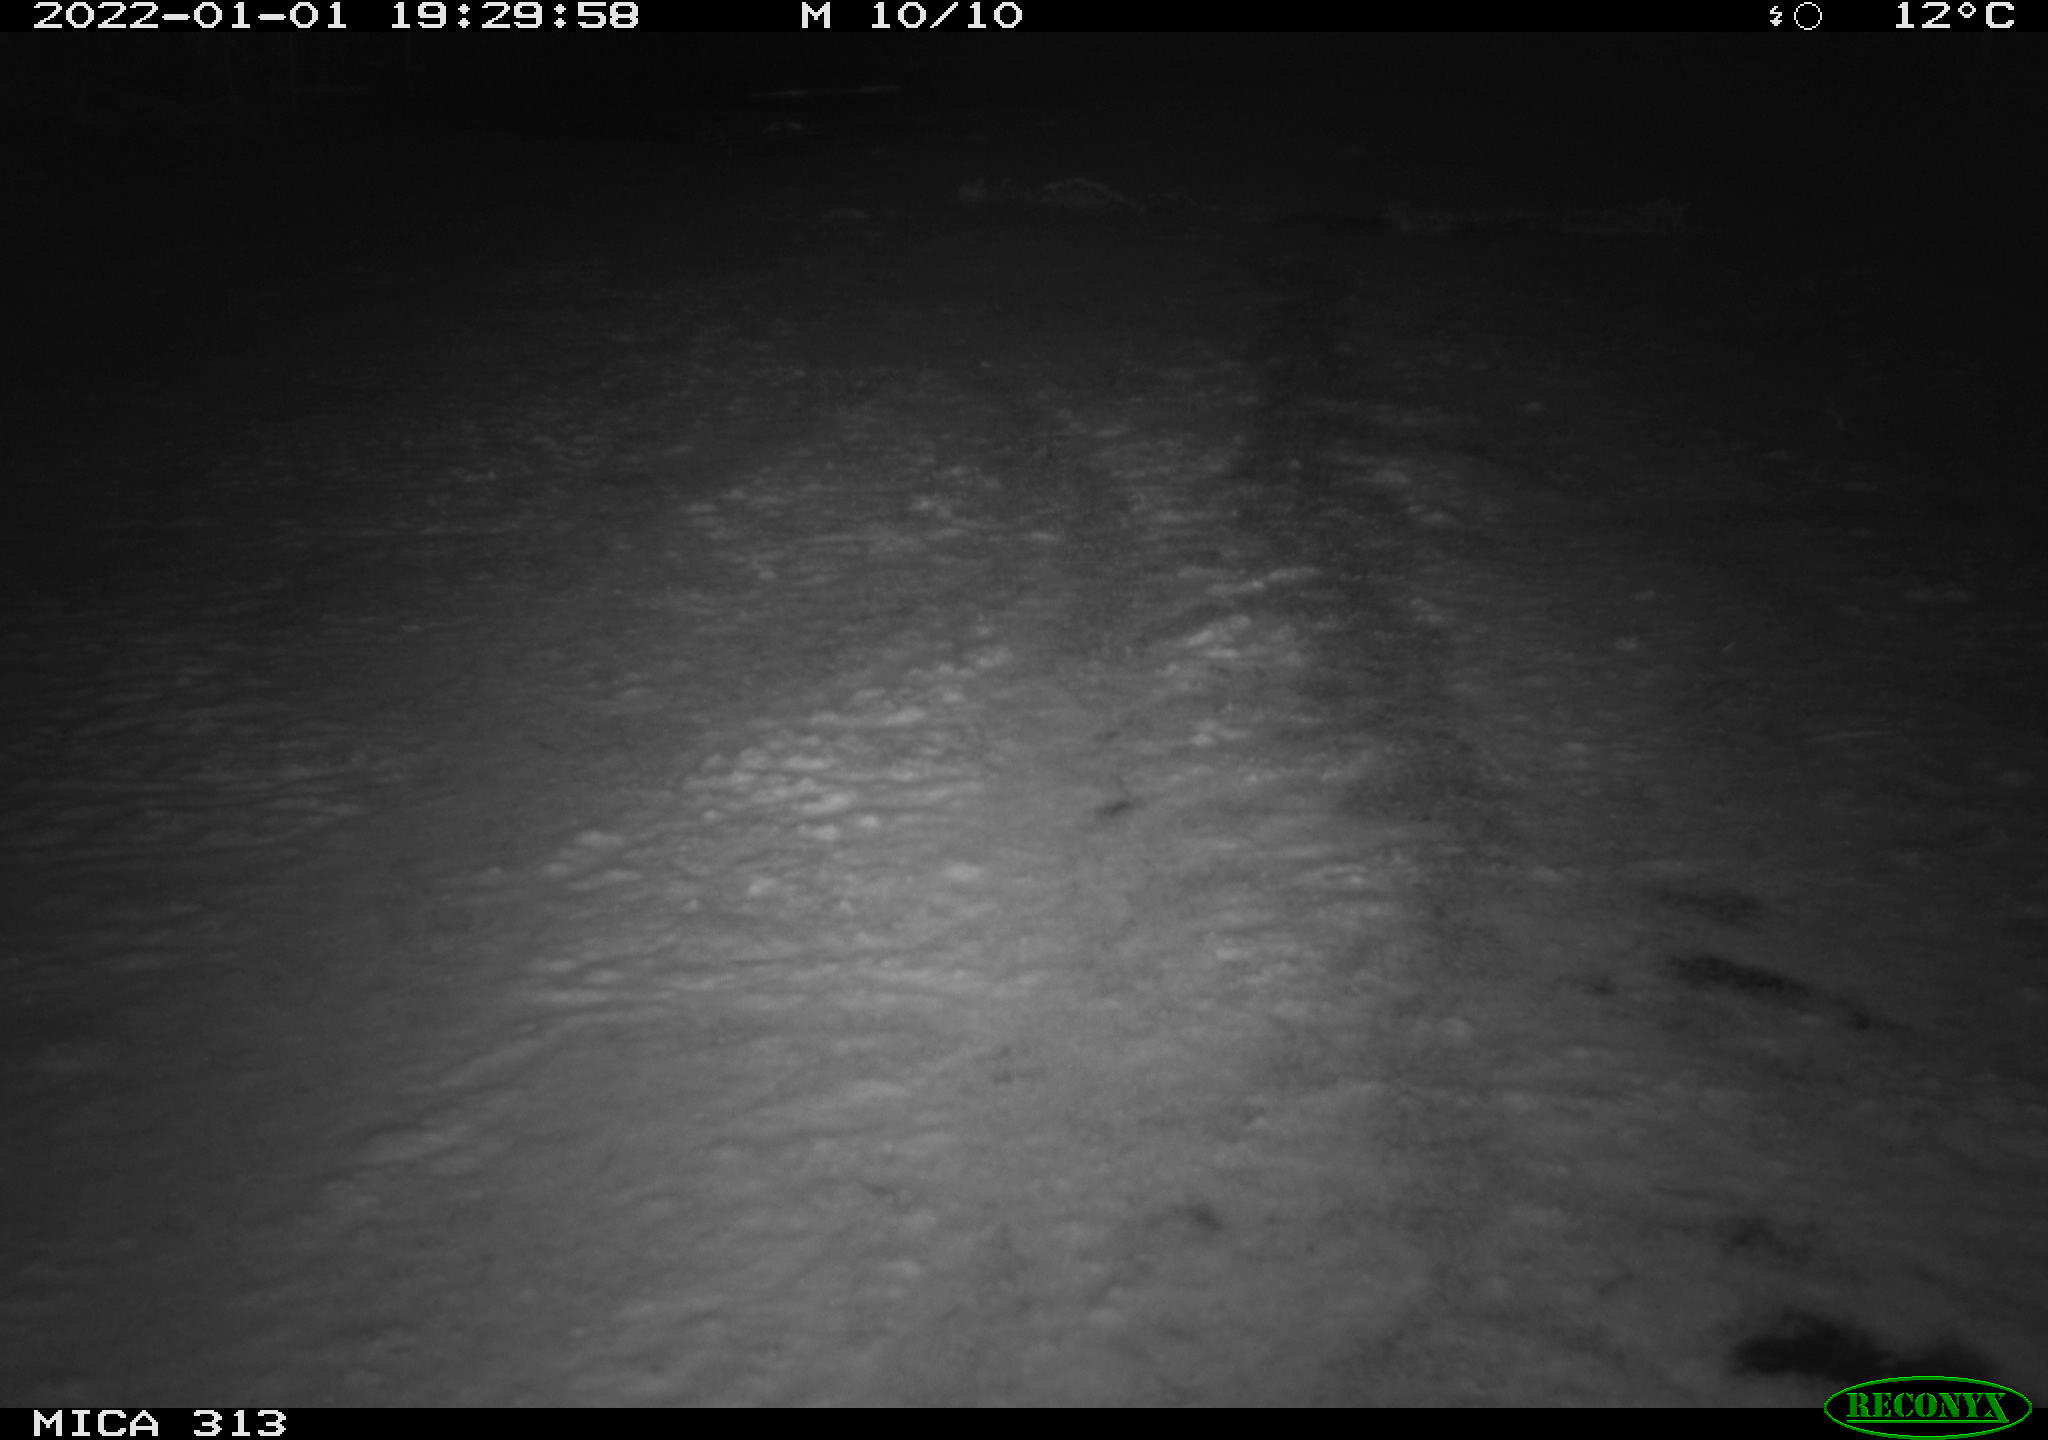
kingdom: Animalia
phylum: Chordata
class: Aves
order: Gruiformes
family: Rallidae
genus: Fulica
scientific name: Fulica atra
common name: Eurasian coot
